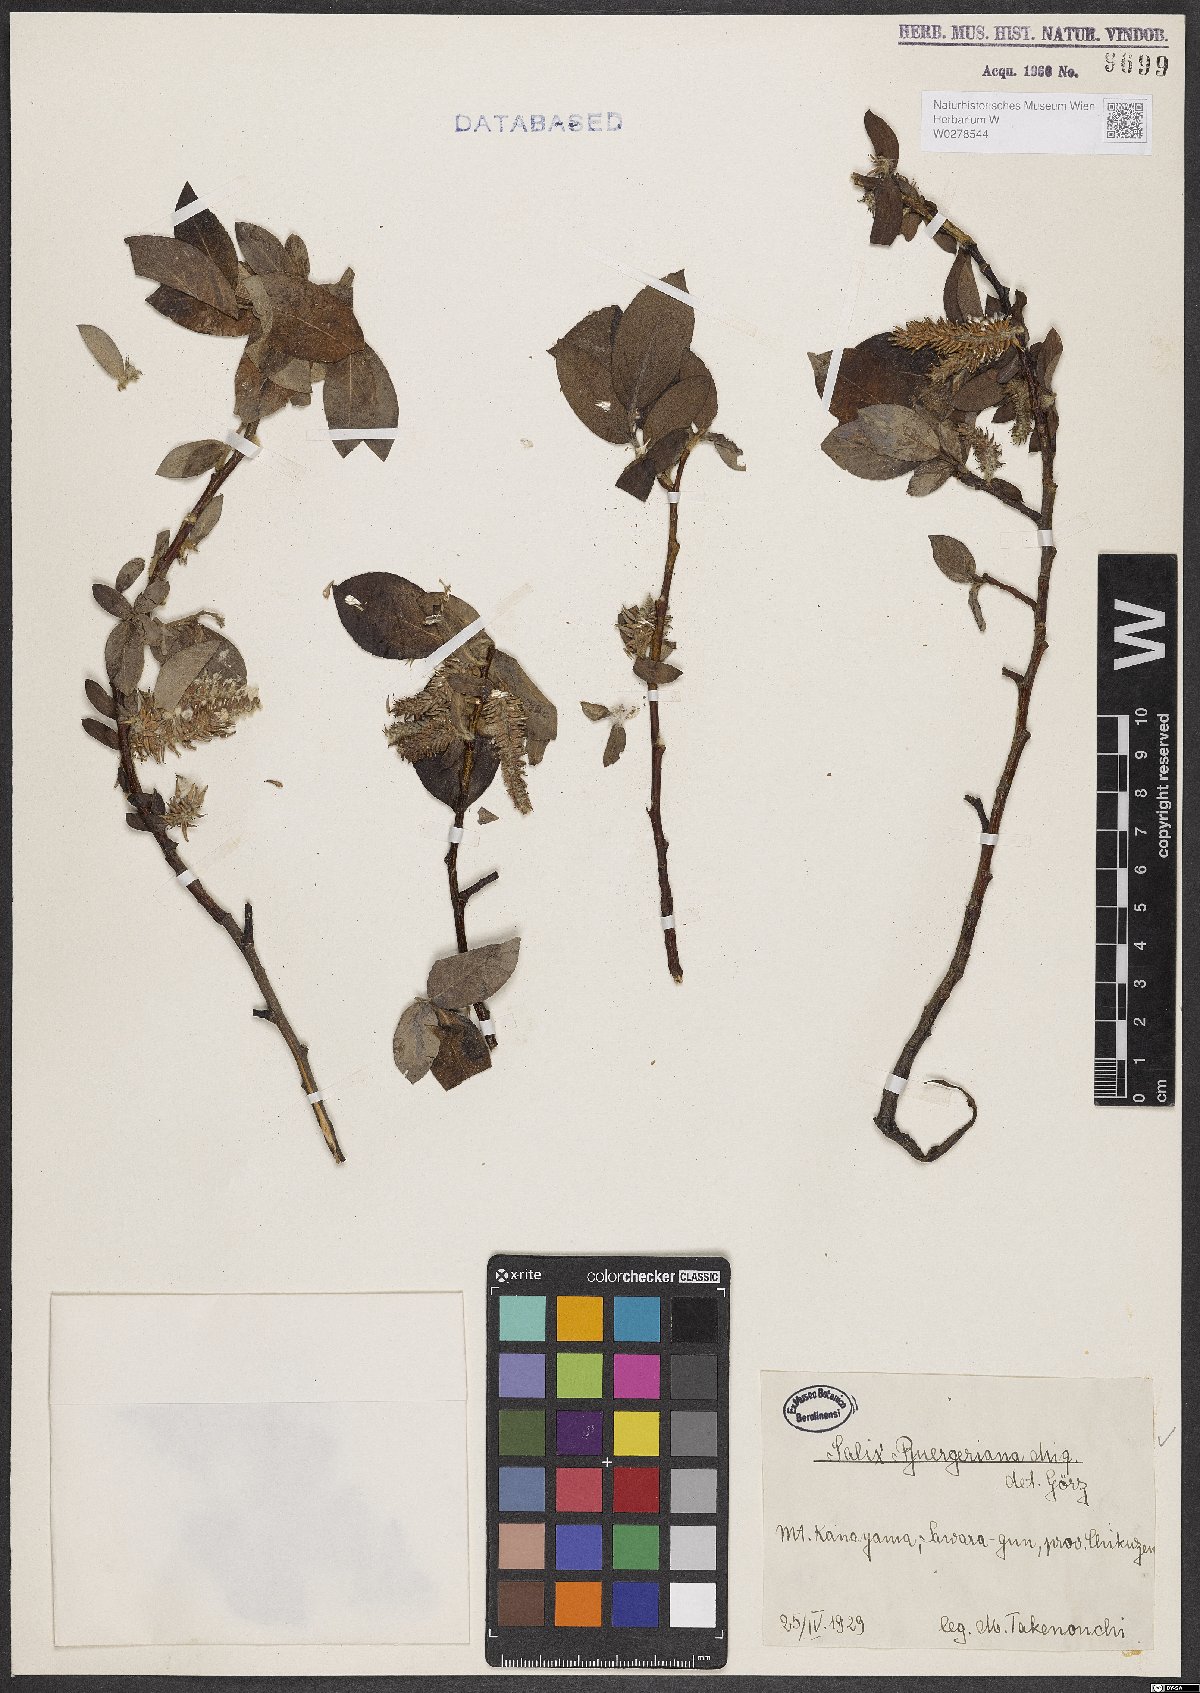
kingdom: Plantae
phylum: Tracheophyta
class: Magnoliopsida
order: Malpighiales
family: Salicaceae
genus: Salix
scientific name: Salix sieboldiana
